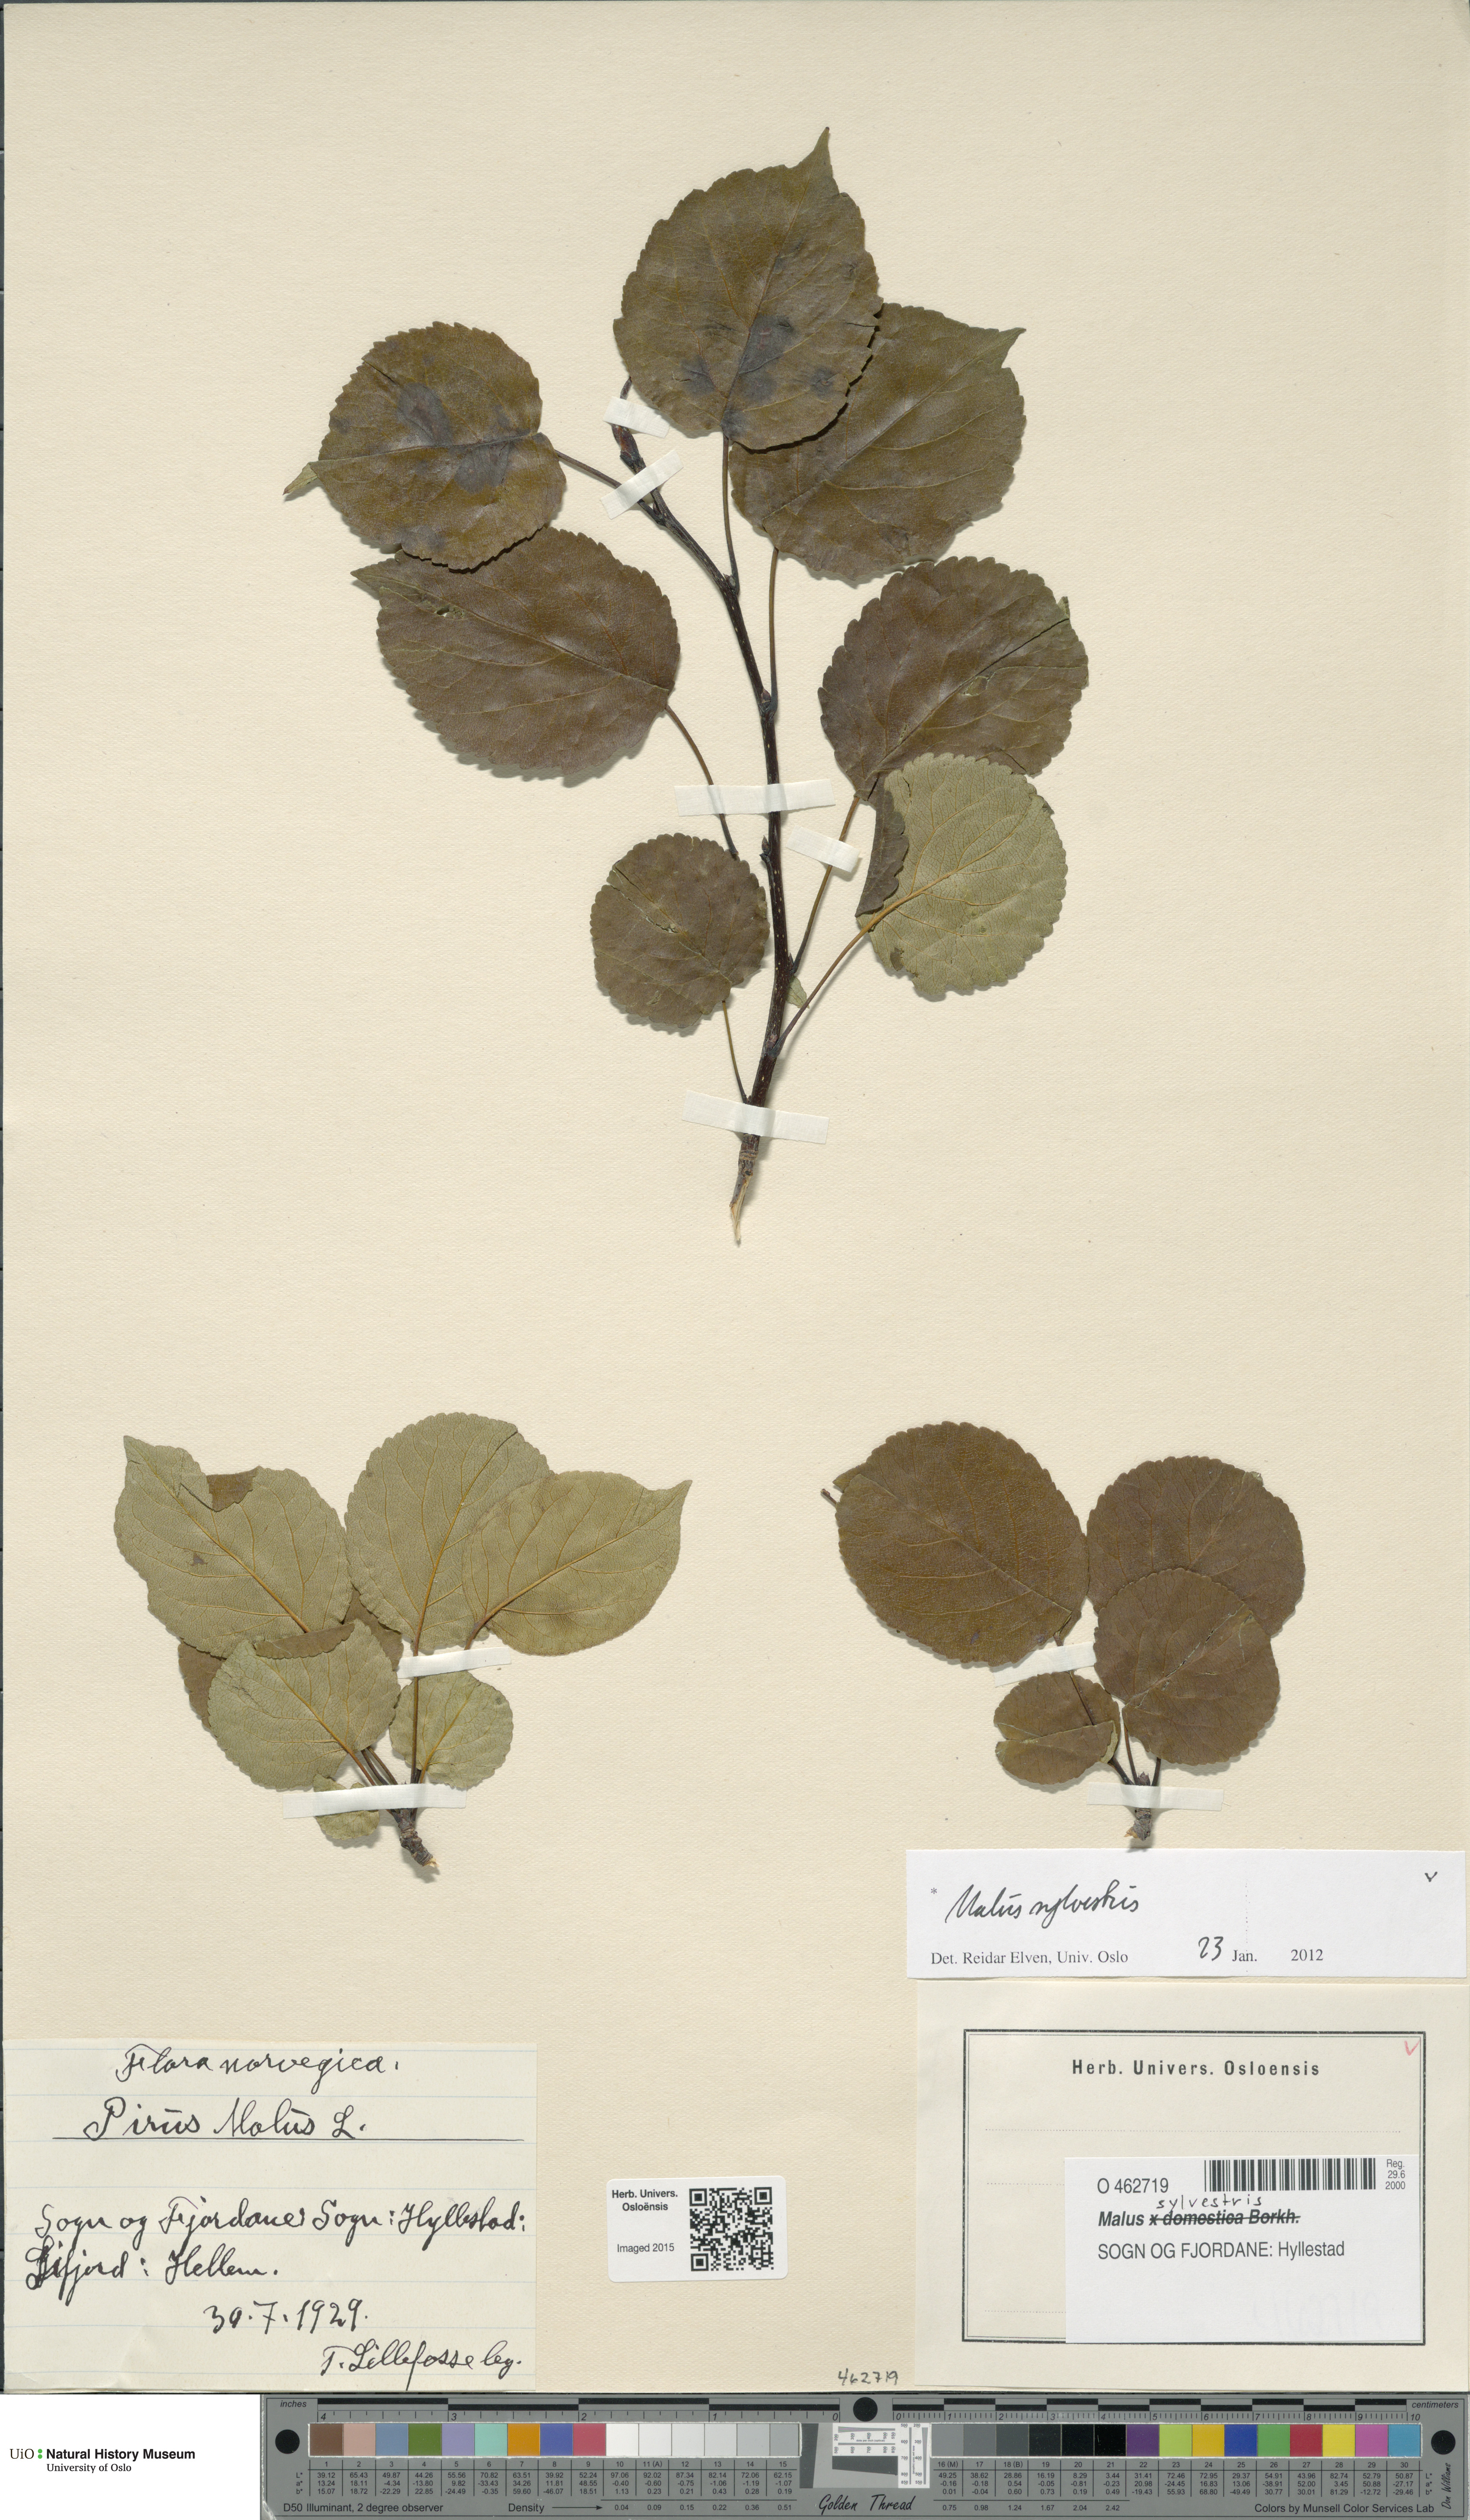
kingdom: Plantae
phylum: Tracheophyta
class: Magnoliopsida
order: Rosales
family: Rosaceae
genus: Malus
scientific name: Malus sylvestris
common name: Crab apple
